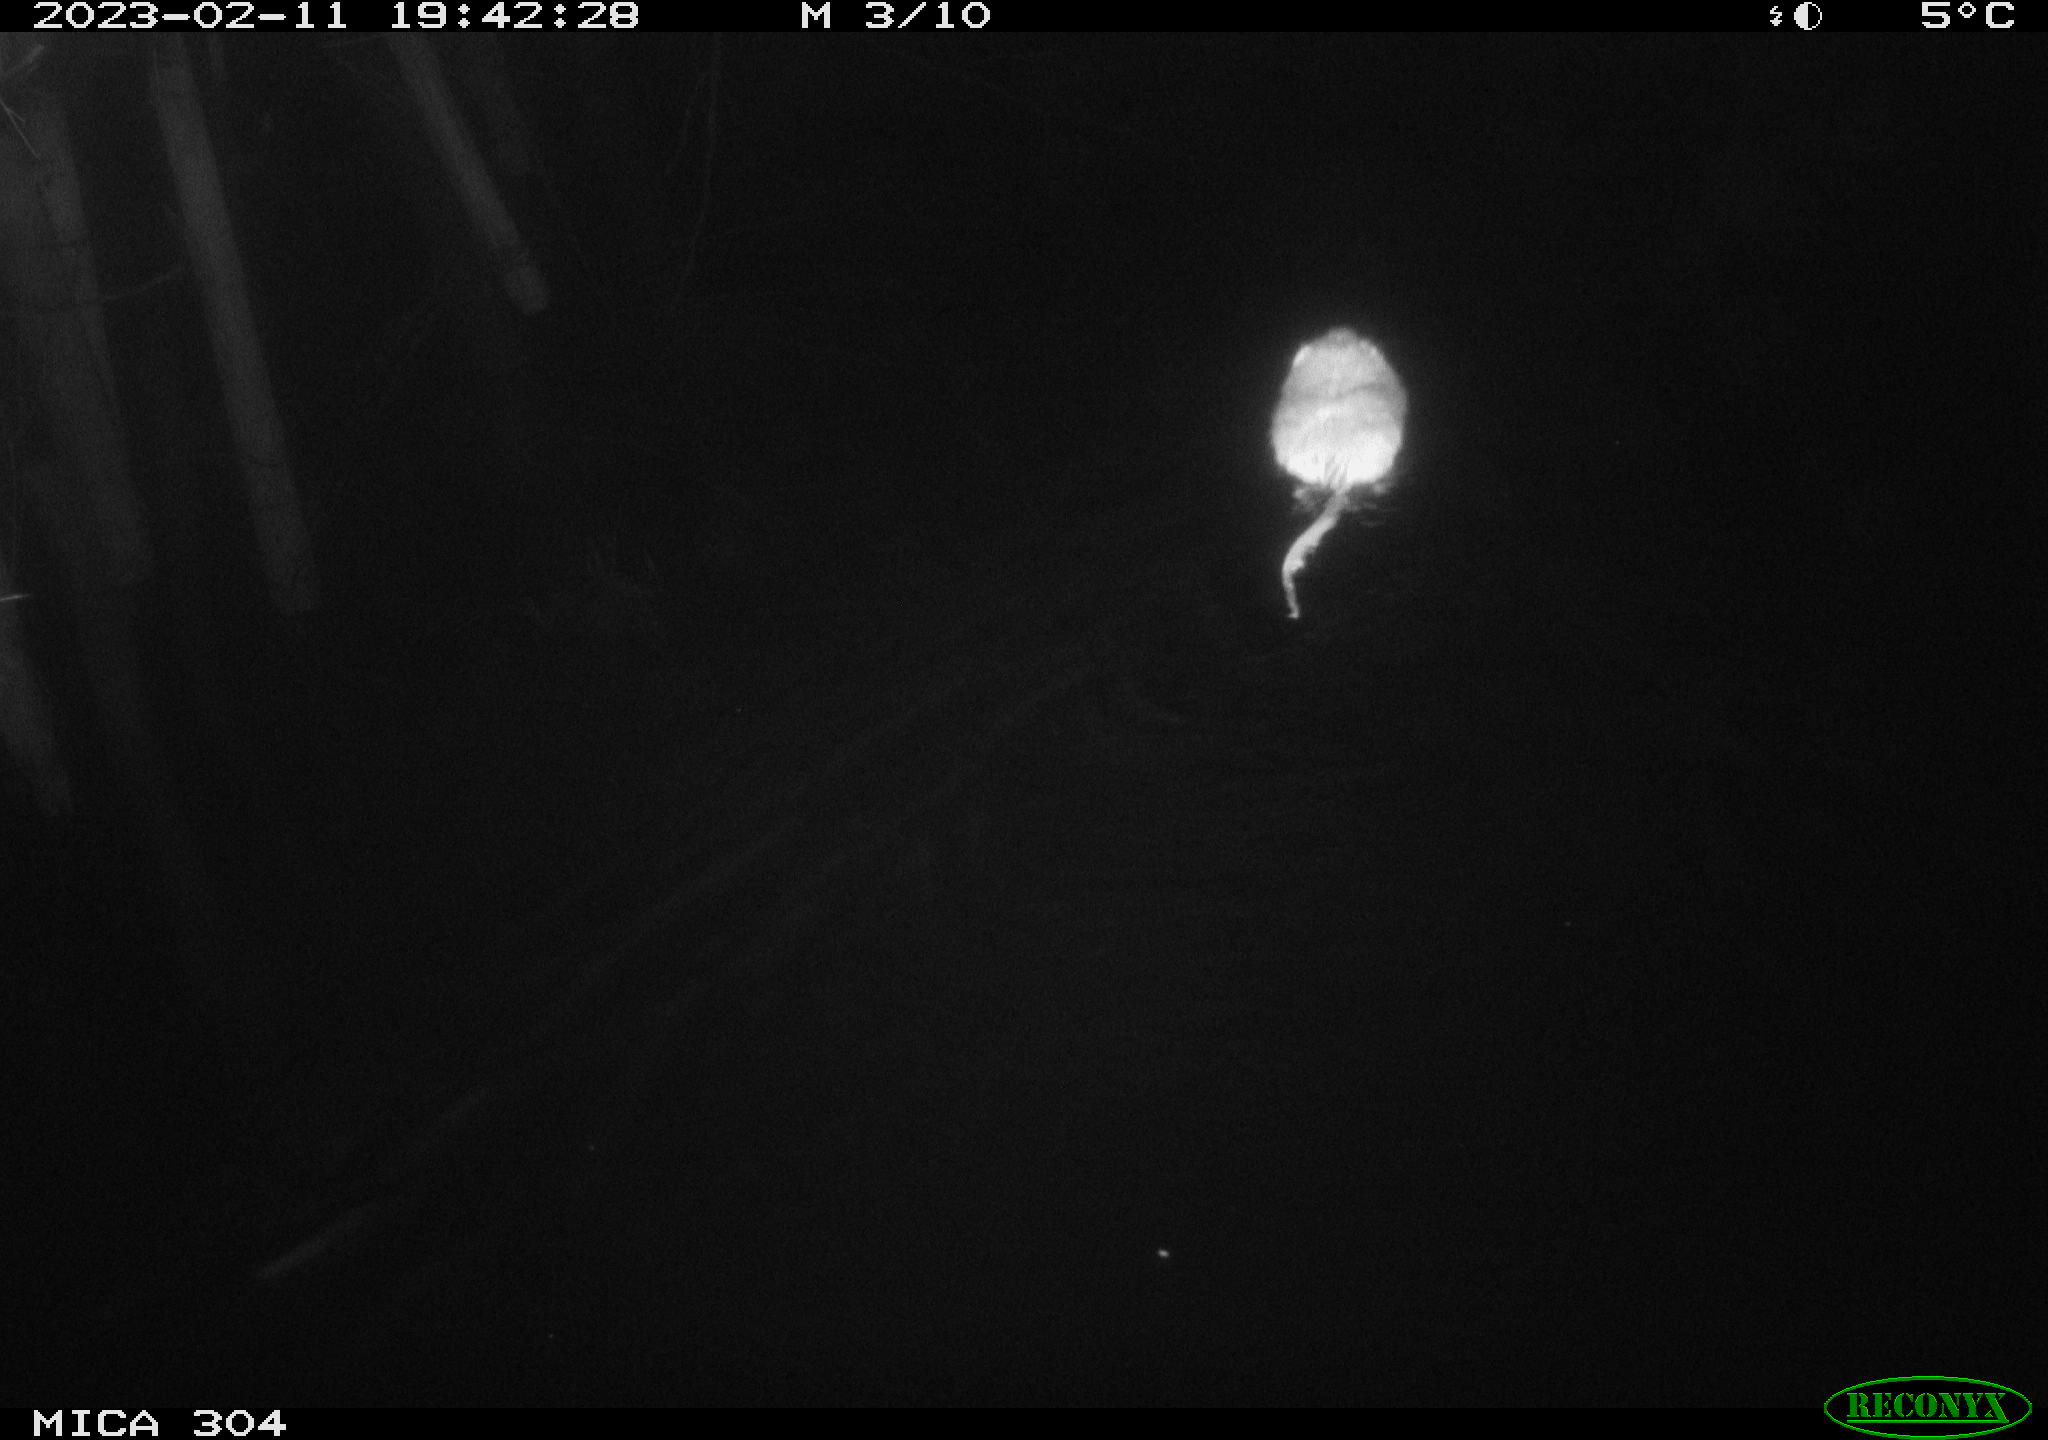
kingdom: Animalia
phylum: Chordata
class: Mammalia
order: Rodentia
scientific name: Rodentia
